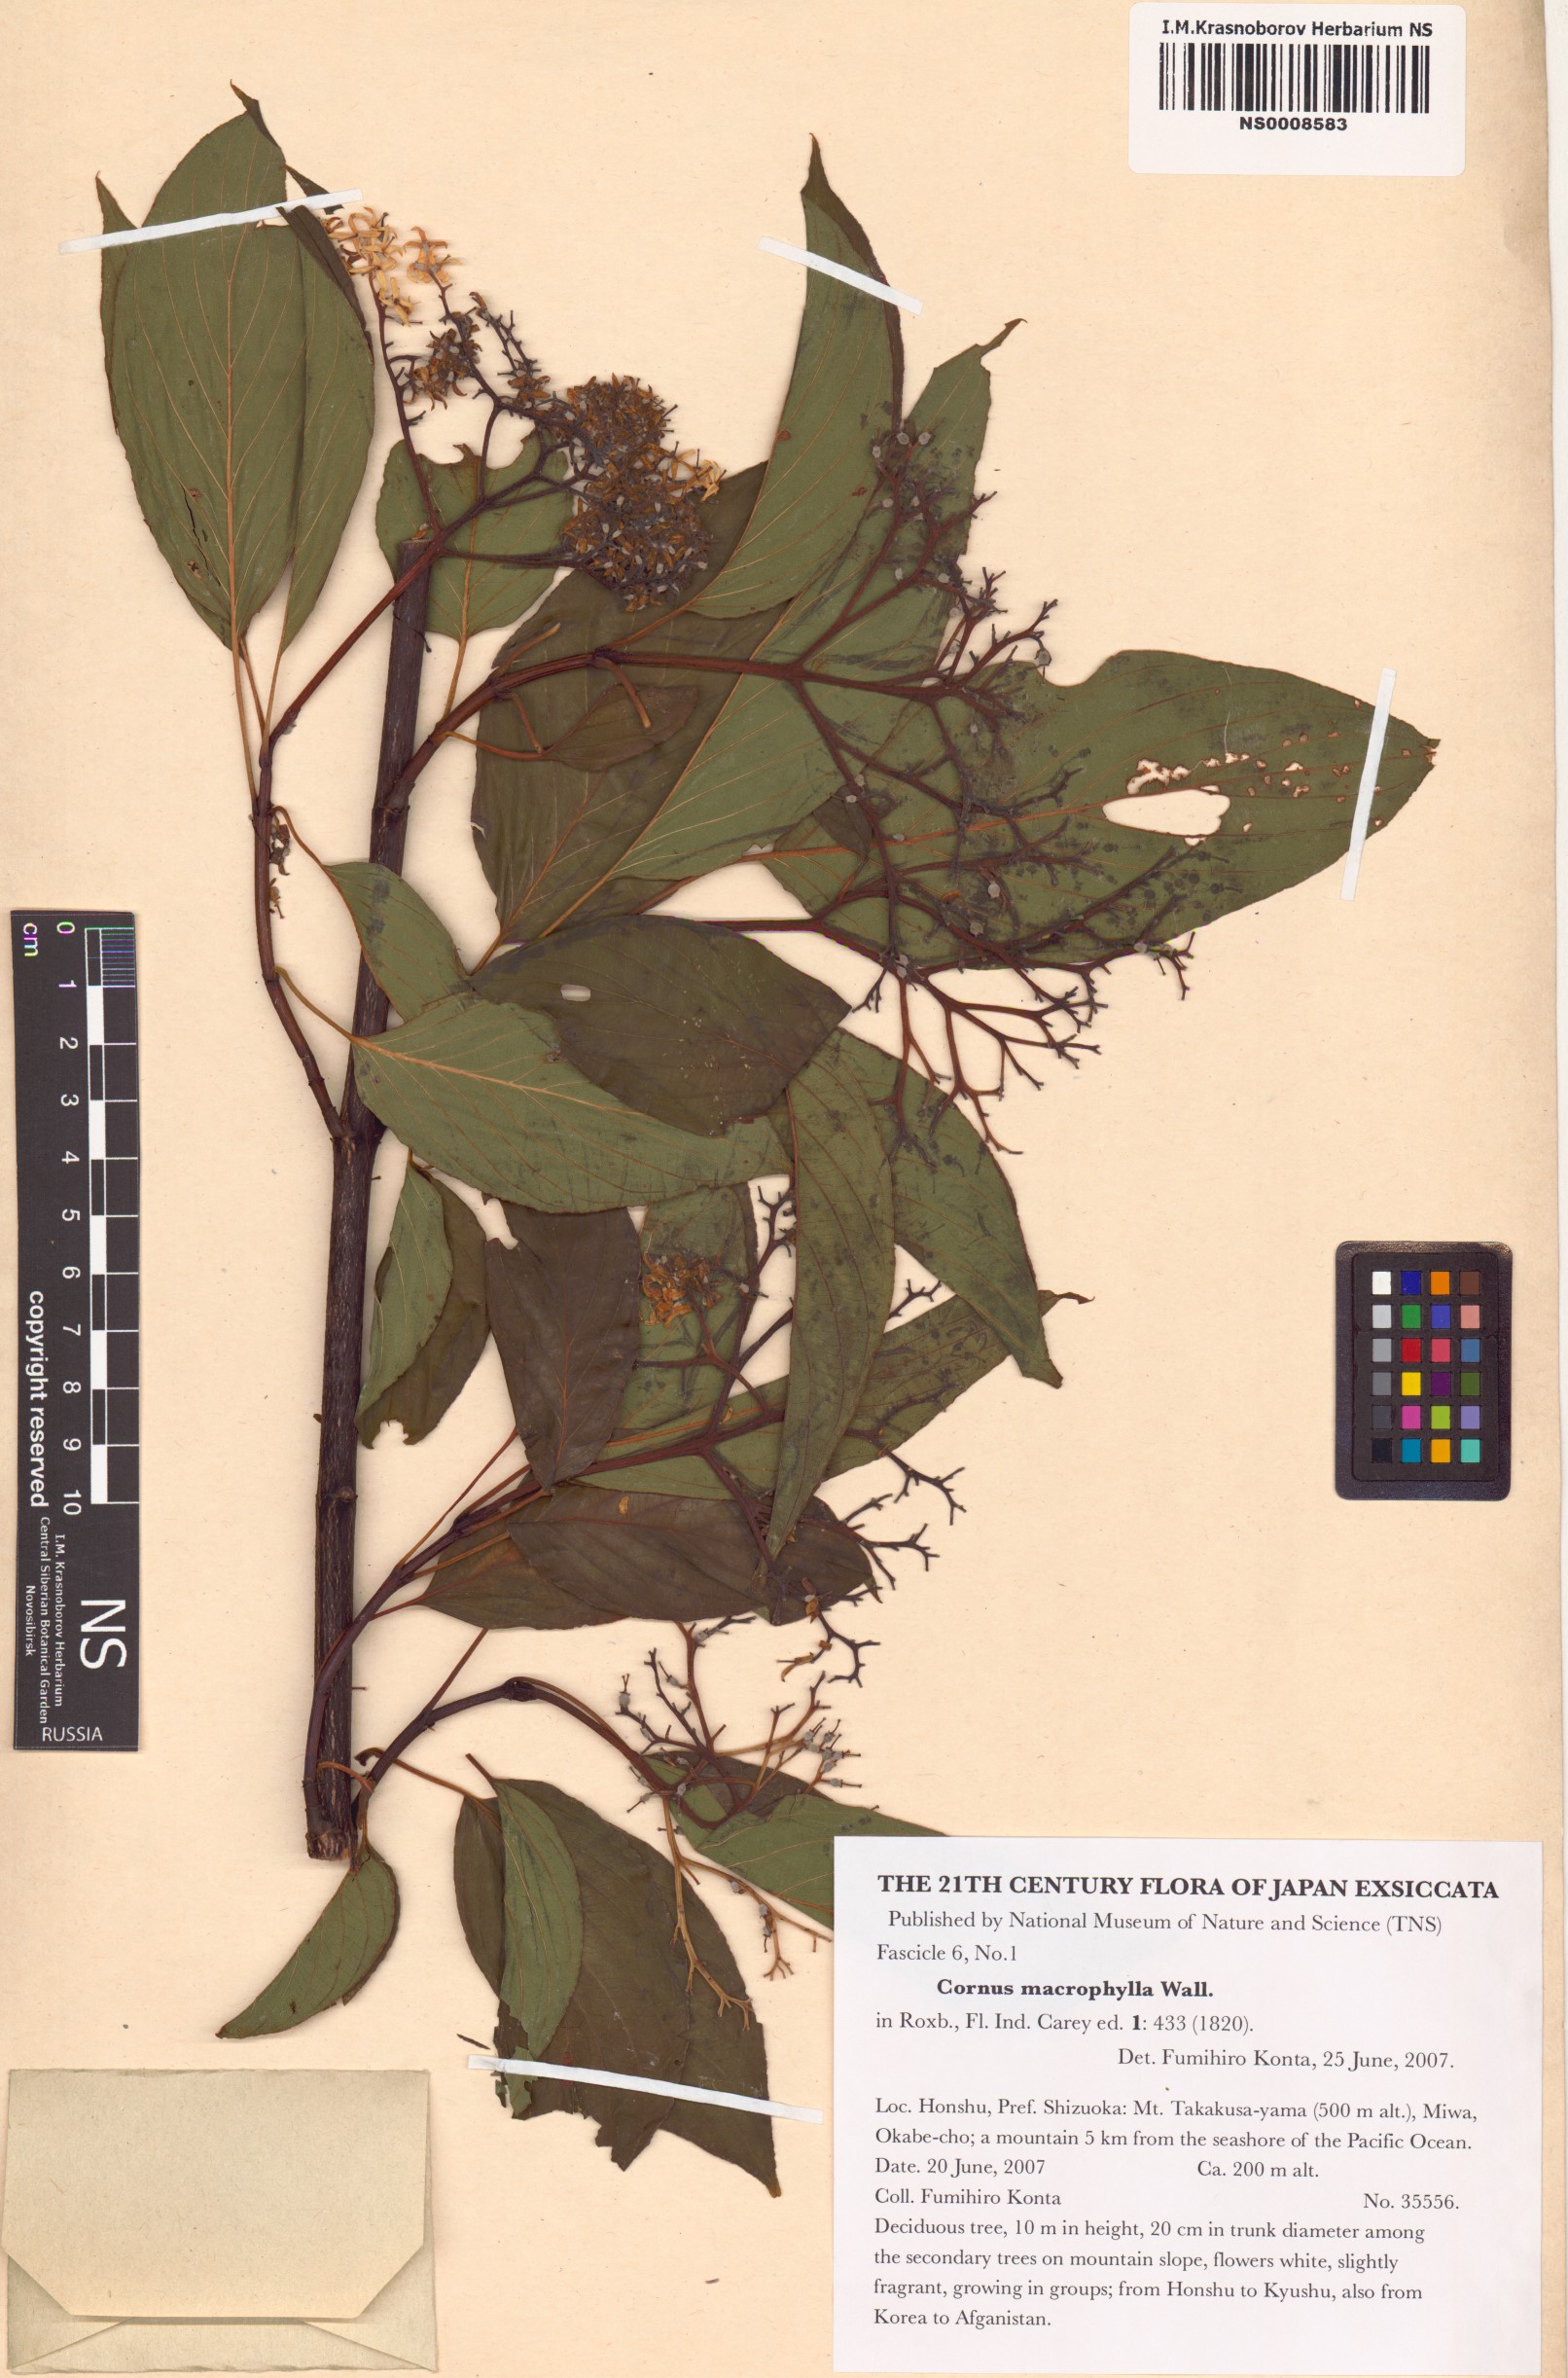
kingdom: Plantae
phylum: Tracheophyta
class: Magnoliopsida
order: Cornales
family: Cornaceae
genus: Cornus
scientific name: Cornus macrophylla
